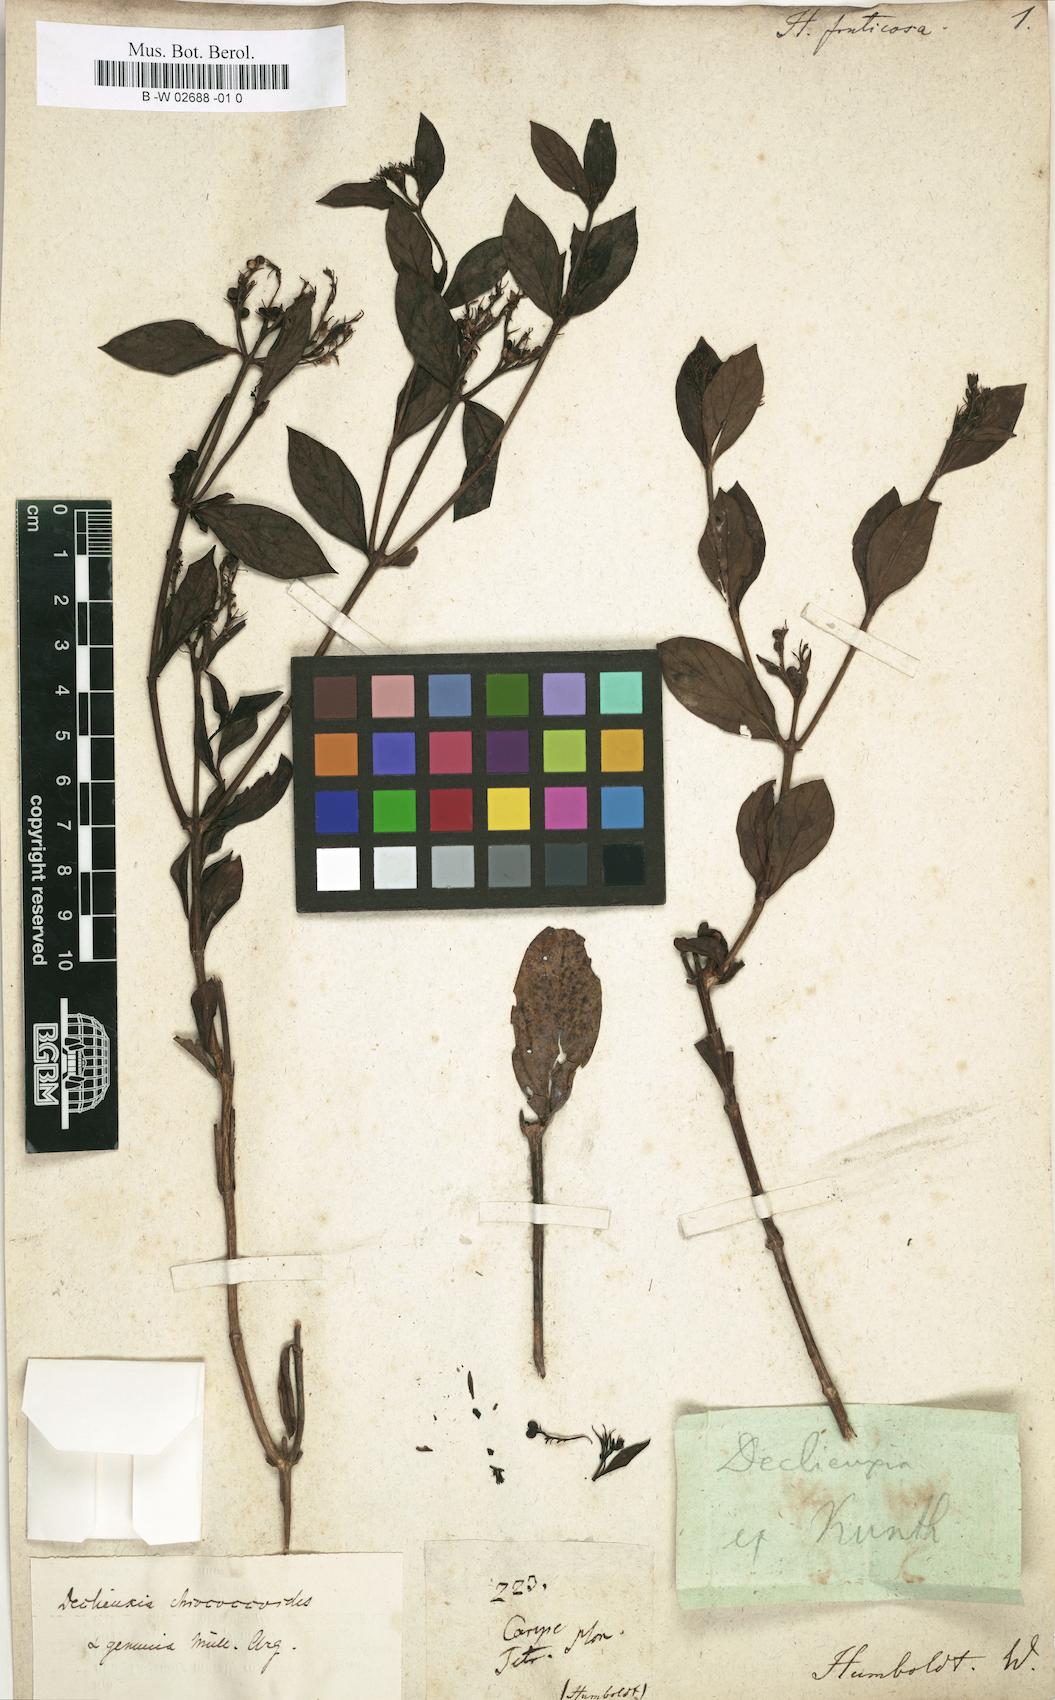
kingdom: Plantae
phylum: Tracheophyta
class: Magnoliopsida
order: Gentianales
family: Rubiaceae
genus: Declieuxia
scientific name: Declieuxia fruticosa
